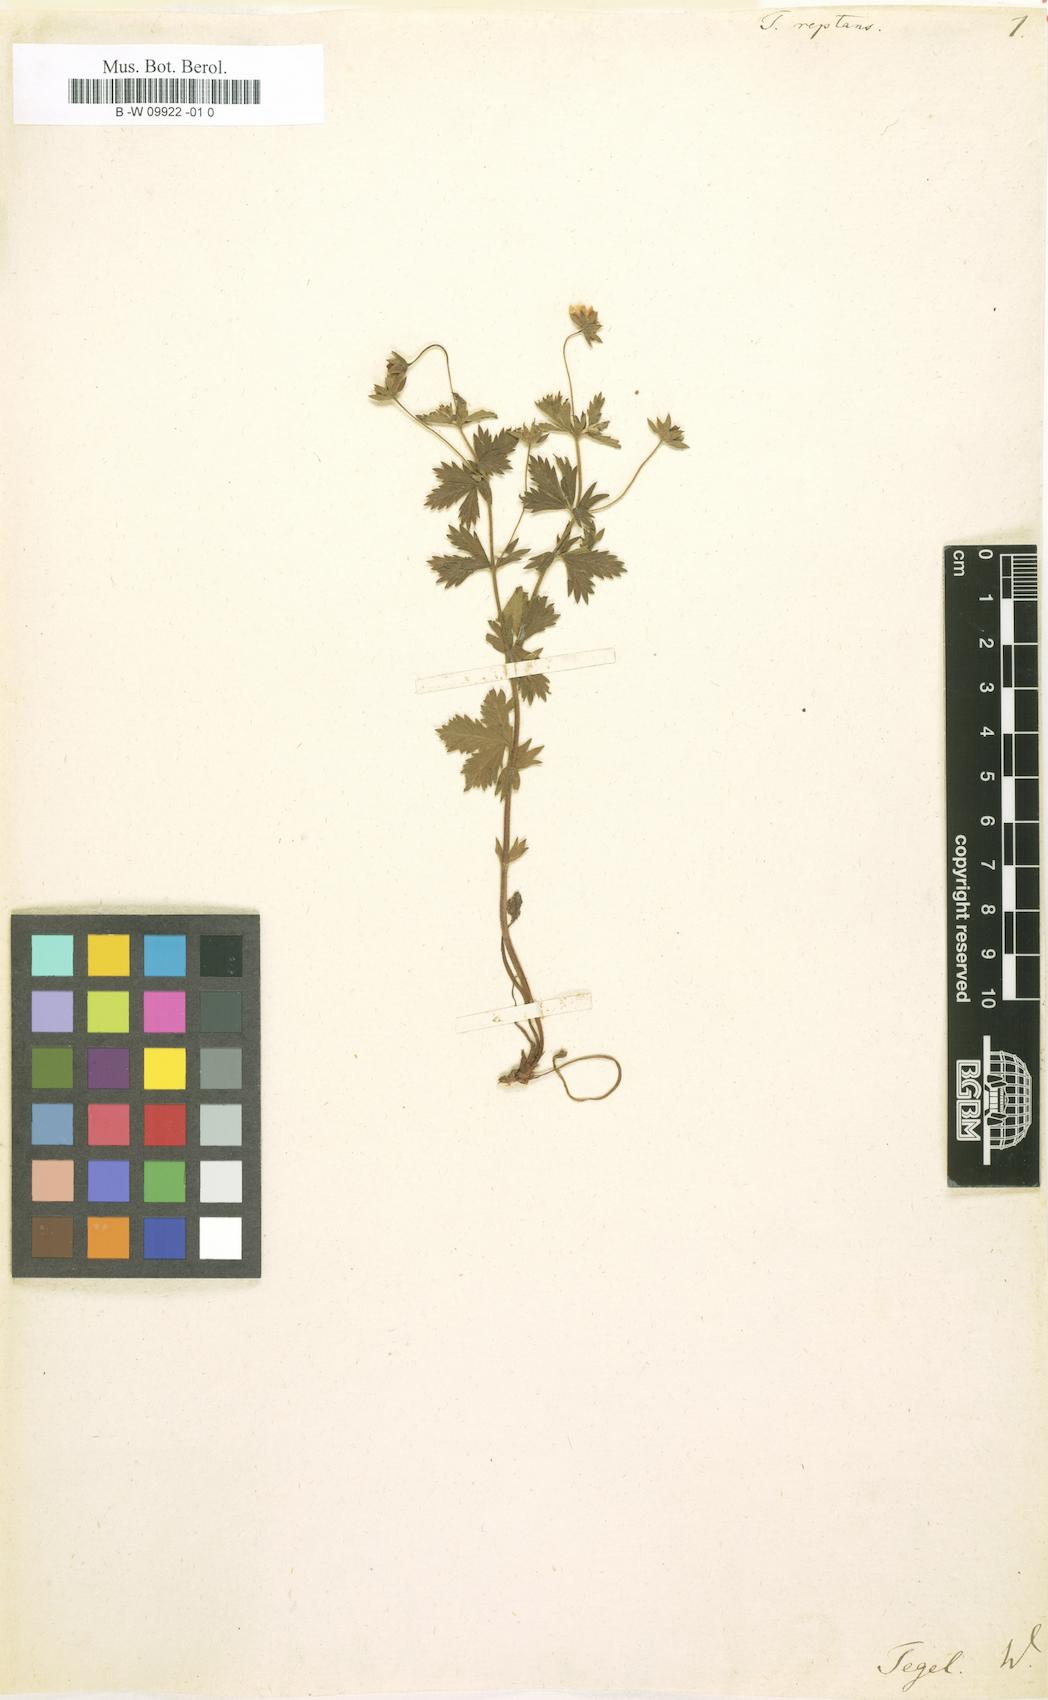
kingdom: Plantae
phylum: Tracheophyta
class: Magnoliopsida
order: Rosales
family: Rosaceae
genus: Potentilla
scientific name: Potentilla reptans
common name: Creeping cinquefoil
